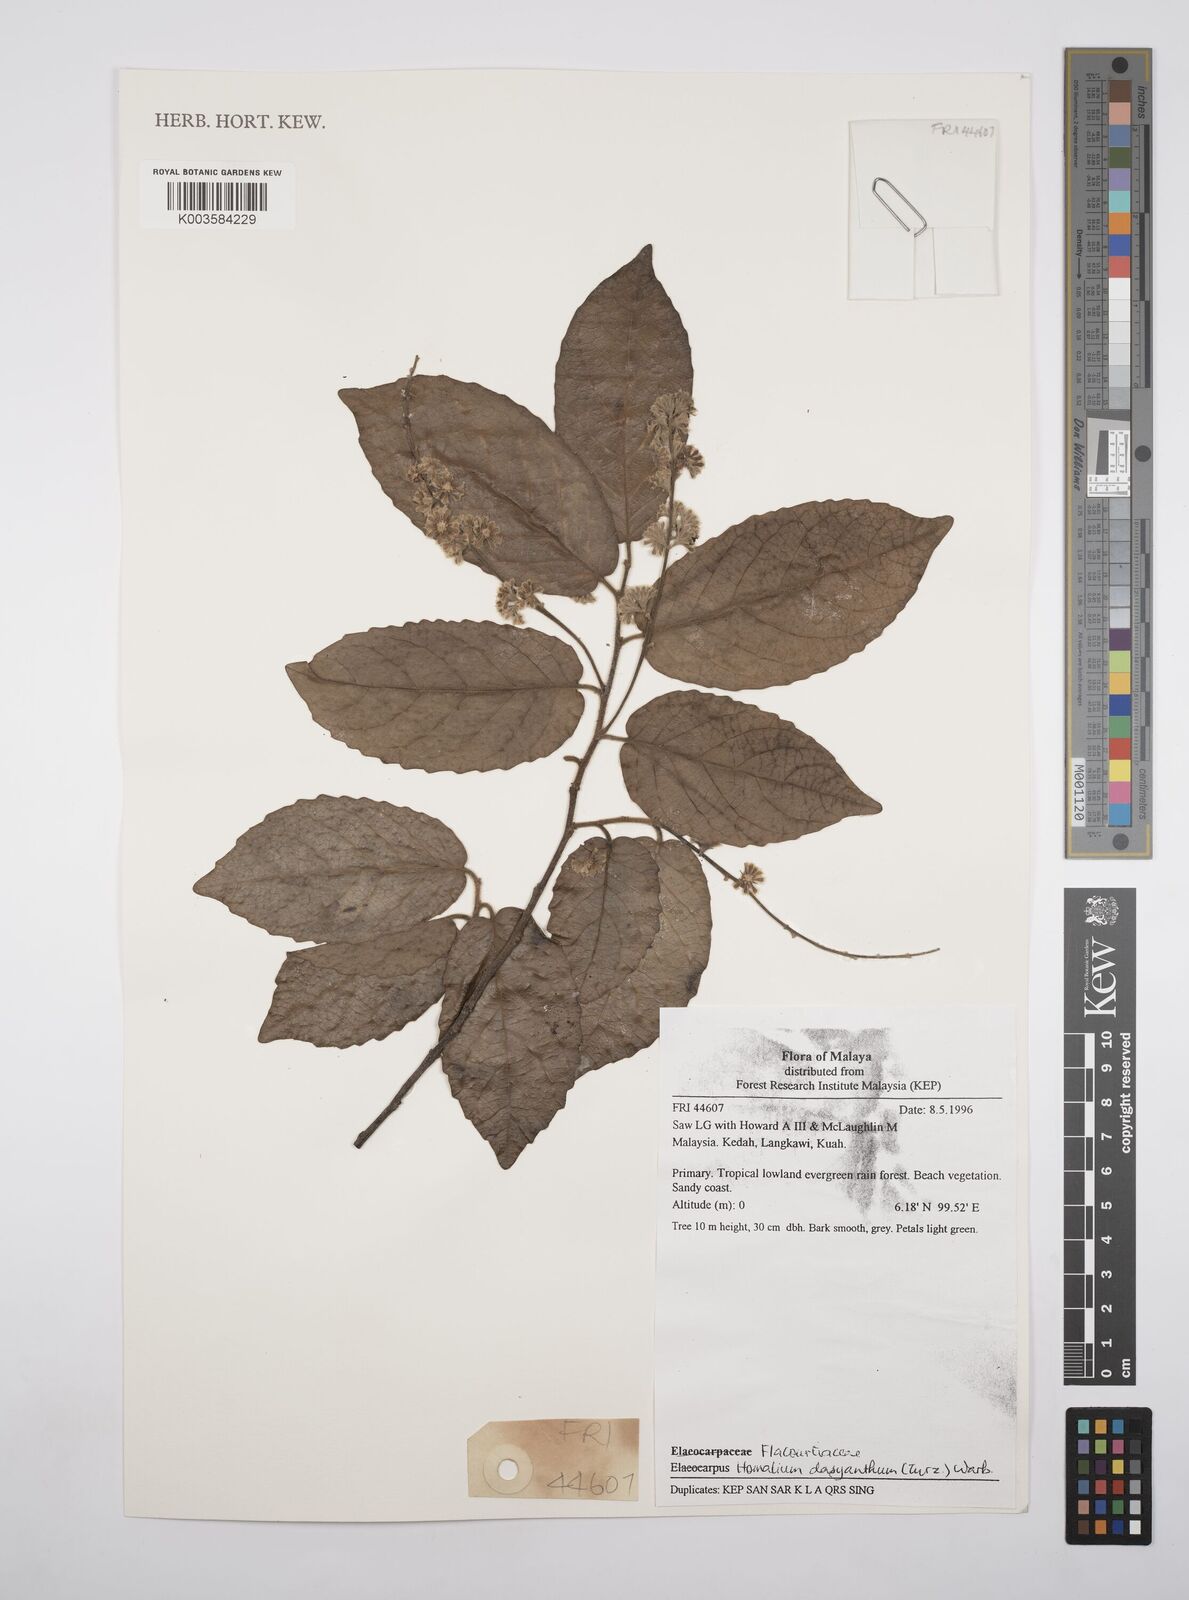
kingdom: Plantae
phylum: Tracheophyta
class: Magnoliopsida
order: Malpighiales
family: Salicaceae
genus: Homalium
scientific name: Homalium dasyanthum
